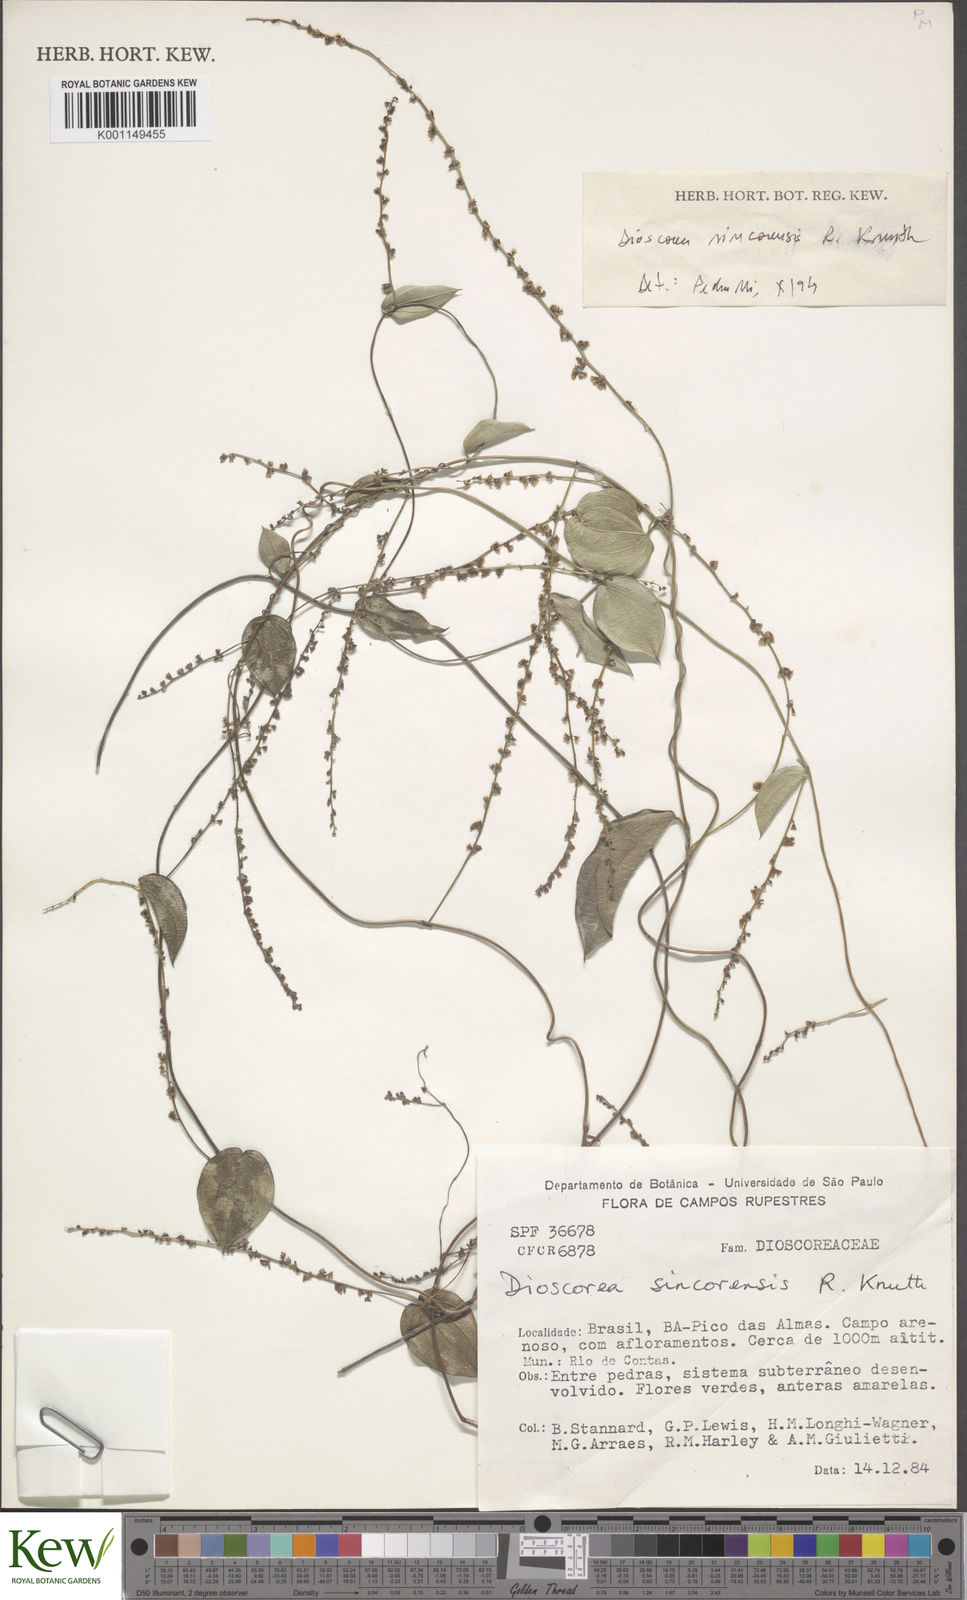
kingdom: Plantae
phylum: Tracheophyta
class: Liliopsida
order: Dioscoreales
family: Dioscoreaceae
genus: Dioscorea
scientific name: Dioscorea sincorensis
